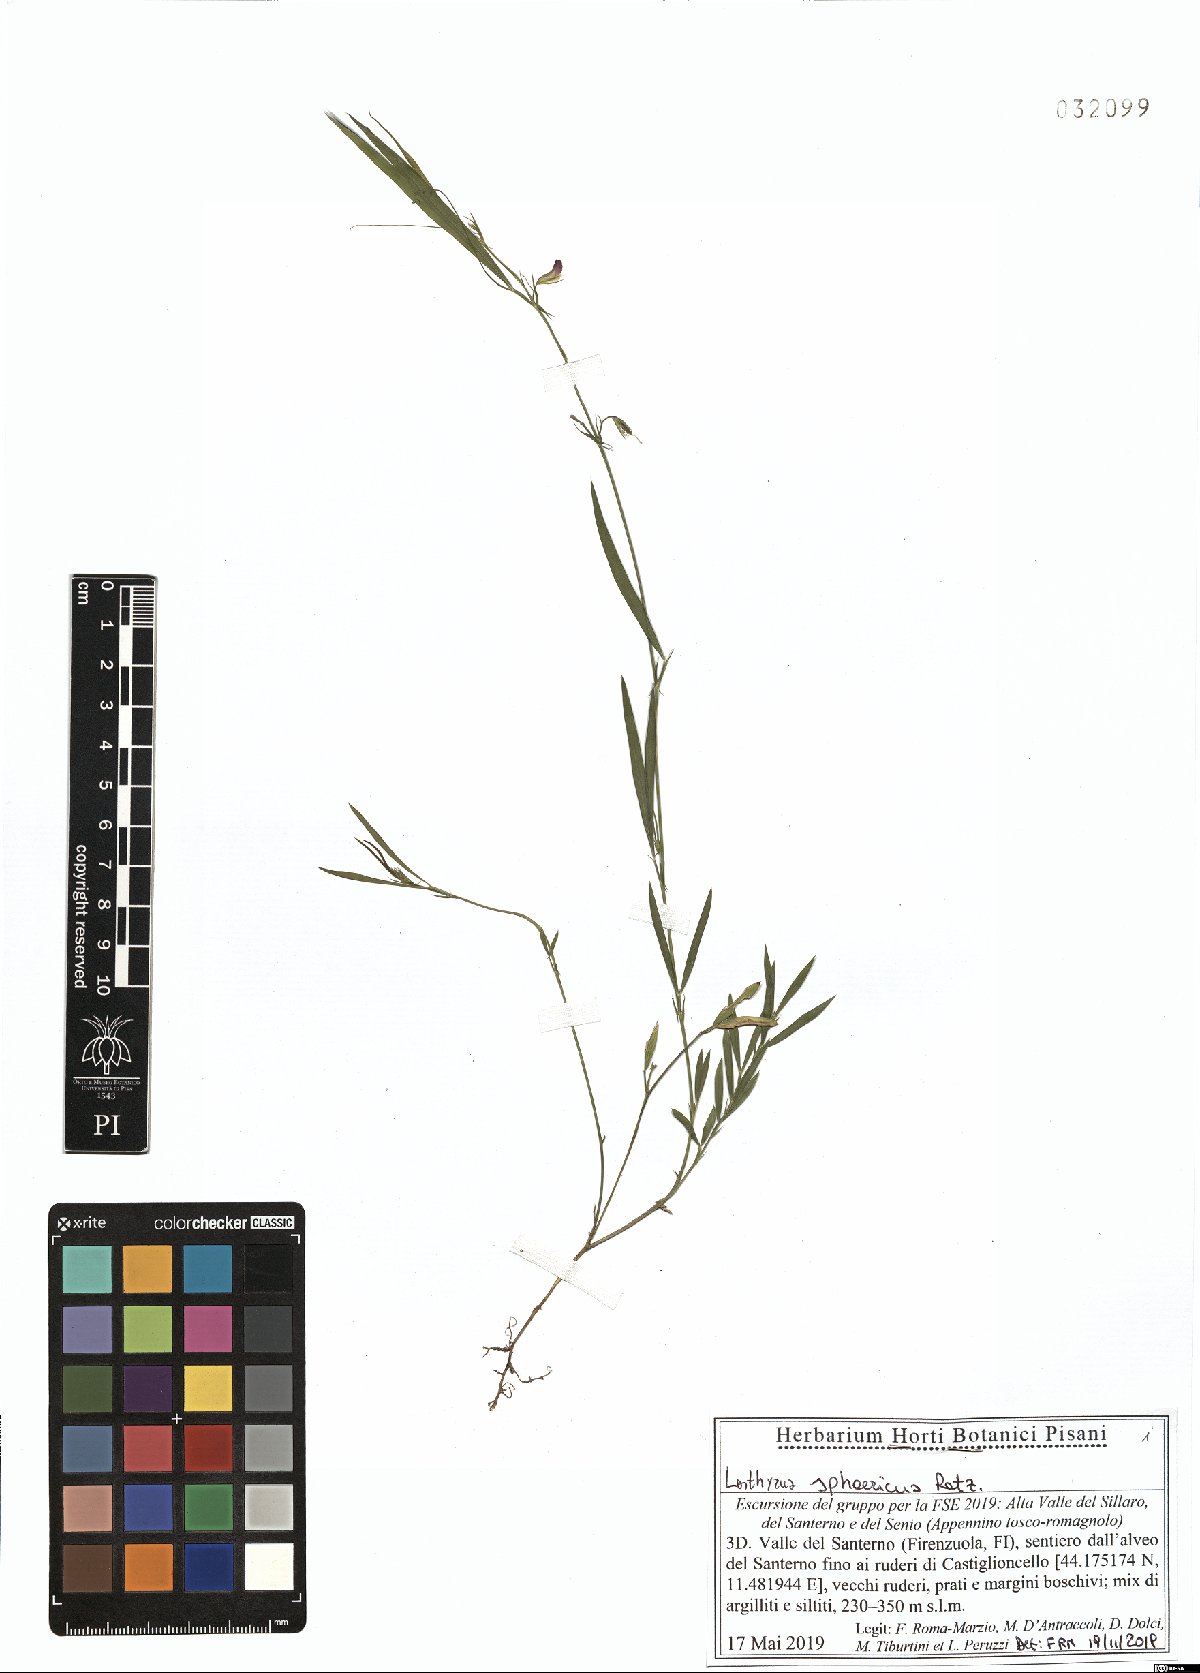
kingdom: Plantae
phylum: Tracheophyta
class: Magnoliopsida
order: Fabales
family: Fabaceae
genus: Lathyrus
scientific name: Lathyrus sphaericus
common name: Grass pea
